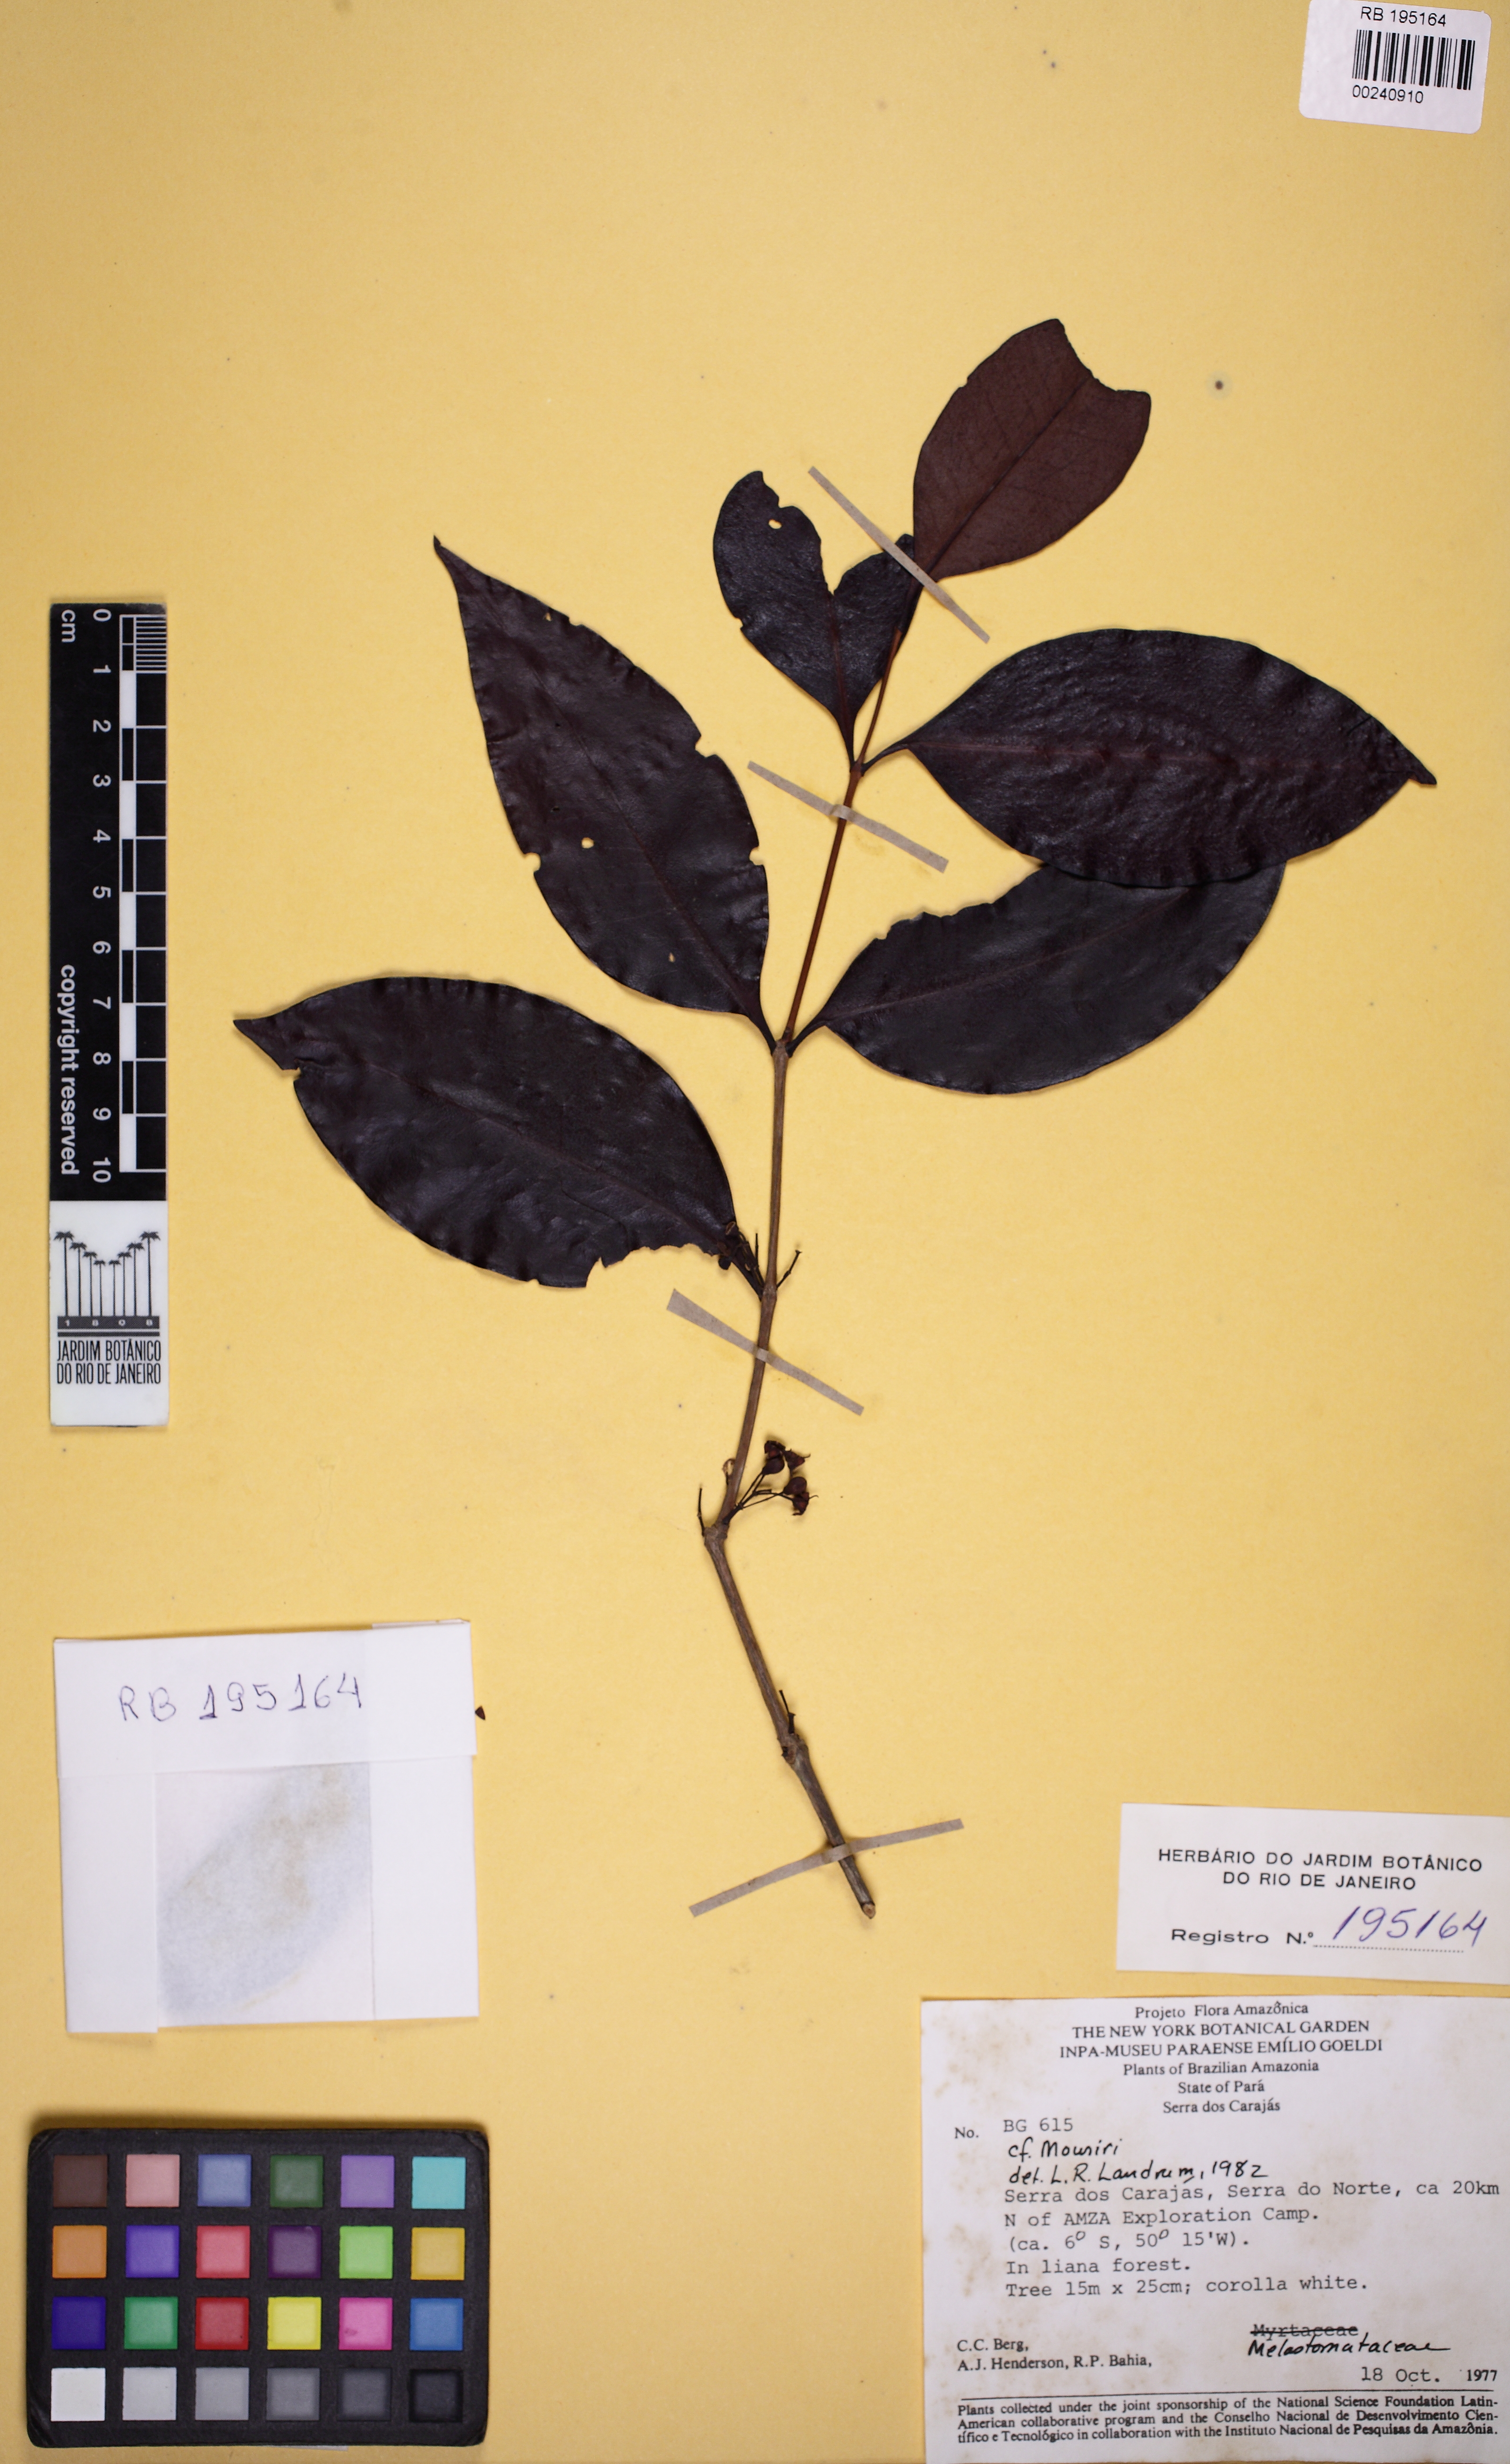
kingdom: Plantae
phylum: Tracheophyta
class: Magnoliopsida
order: Myrtales
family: Melastomataceae
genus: Mouriri
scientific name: Mouriri cearensis
